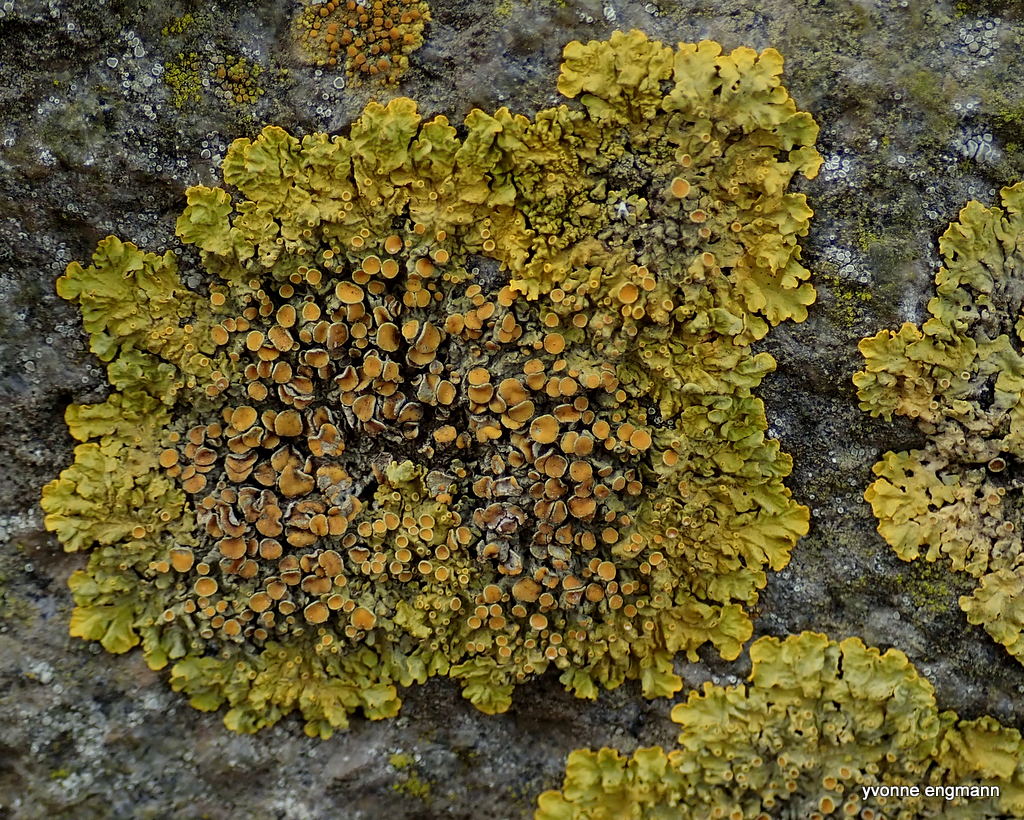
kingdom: Fungi
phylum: Ascomycota
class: Lecanoromycetes
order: Teloschistales
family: Teloschistaceae
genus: Xanthoria
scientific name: Xanthoria parietina
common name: almindelig væggelav
